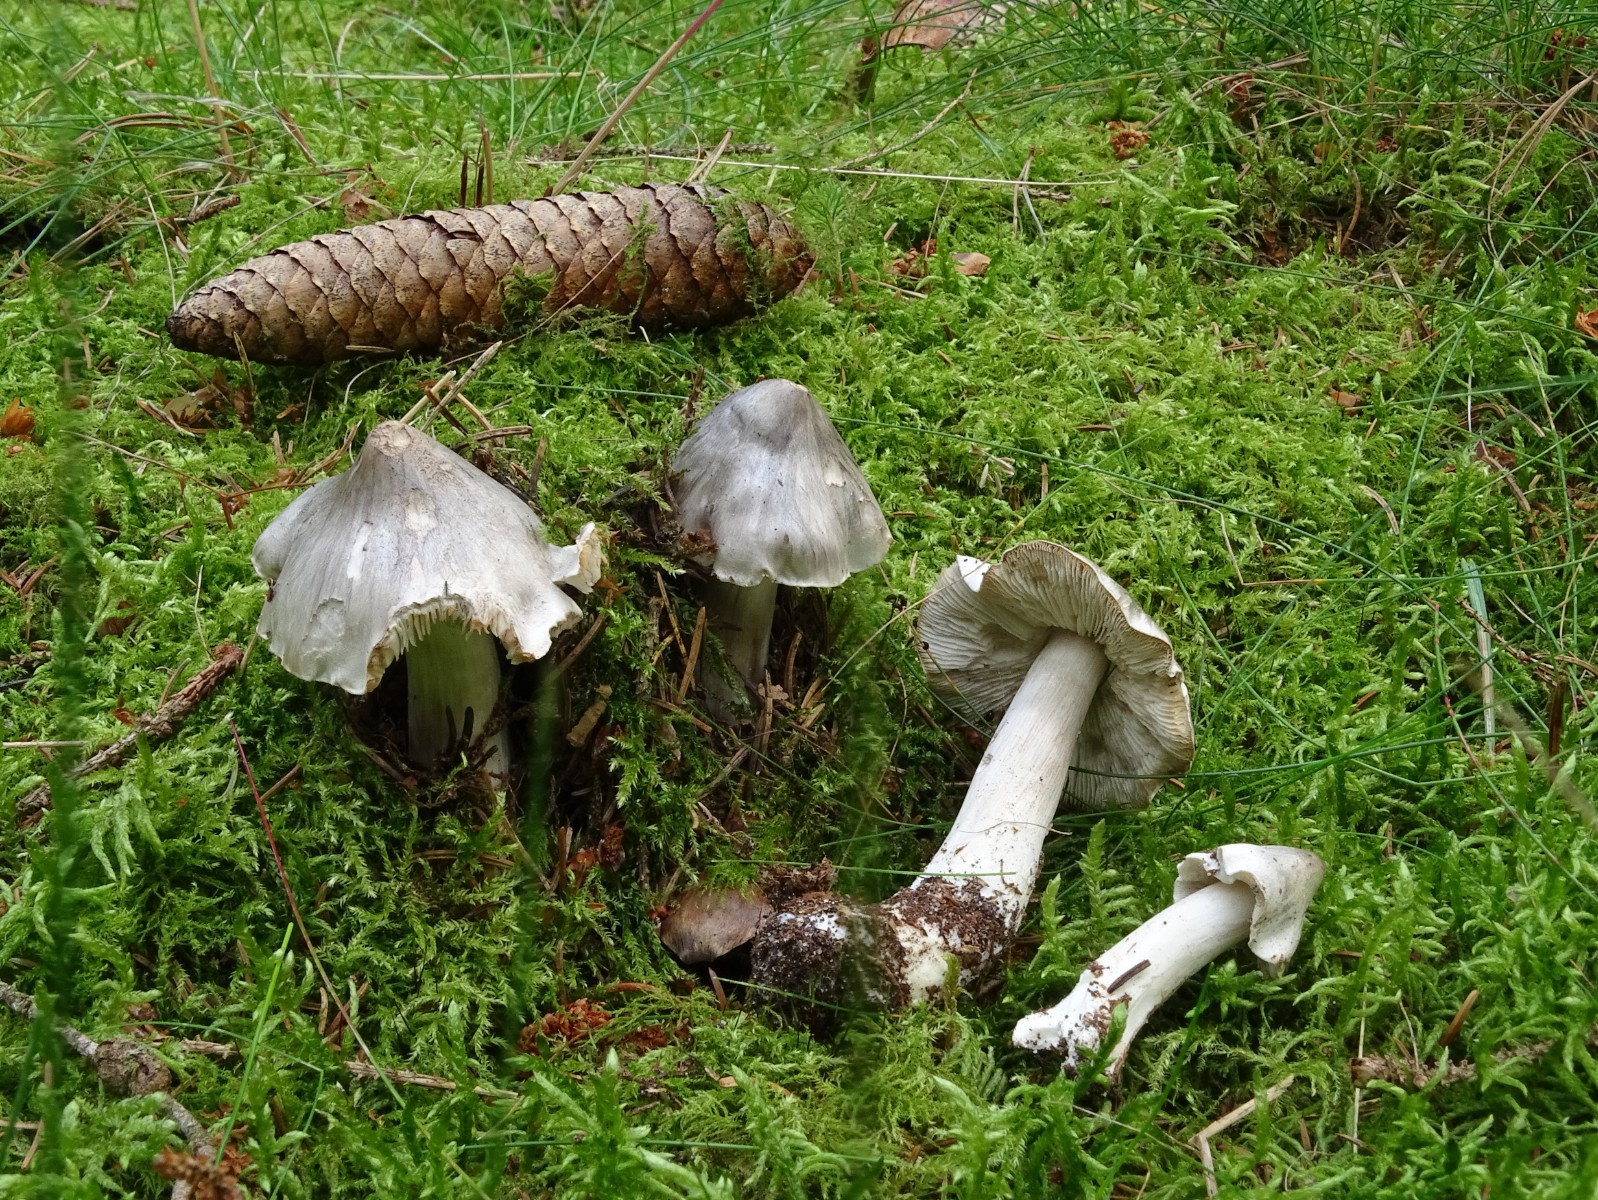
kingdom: Fungi
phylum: Basidiomycota
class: Agaricomycetes
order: Agaricales
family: Tricholomataceae
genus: Tricholoma
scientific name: Tricholoma virgatum
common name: nålestribet ridderhat
